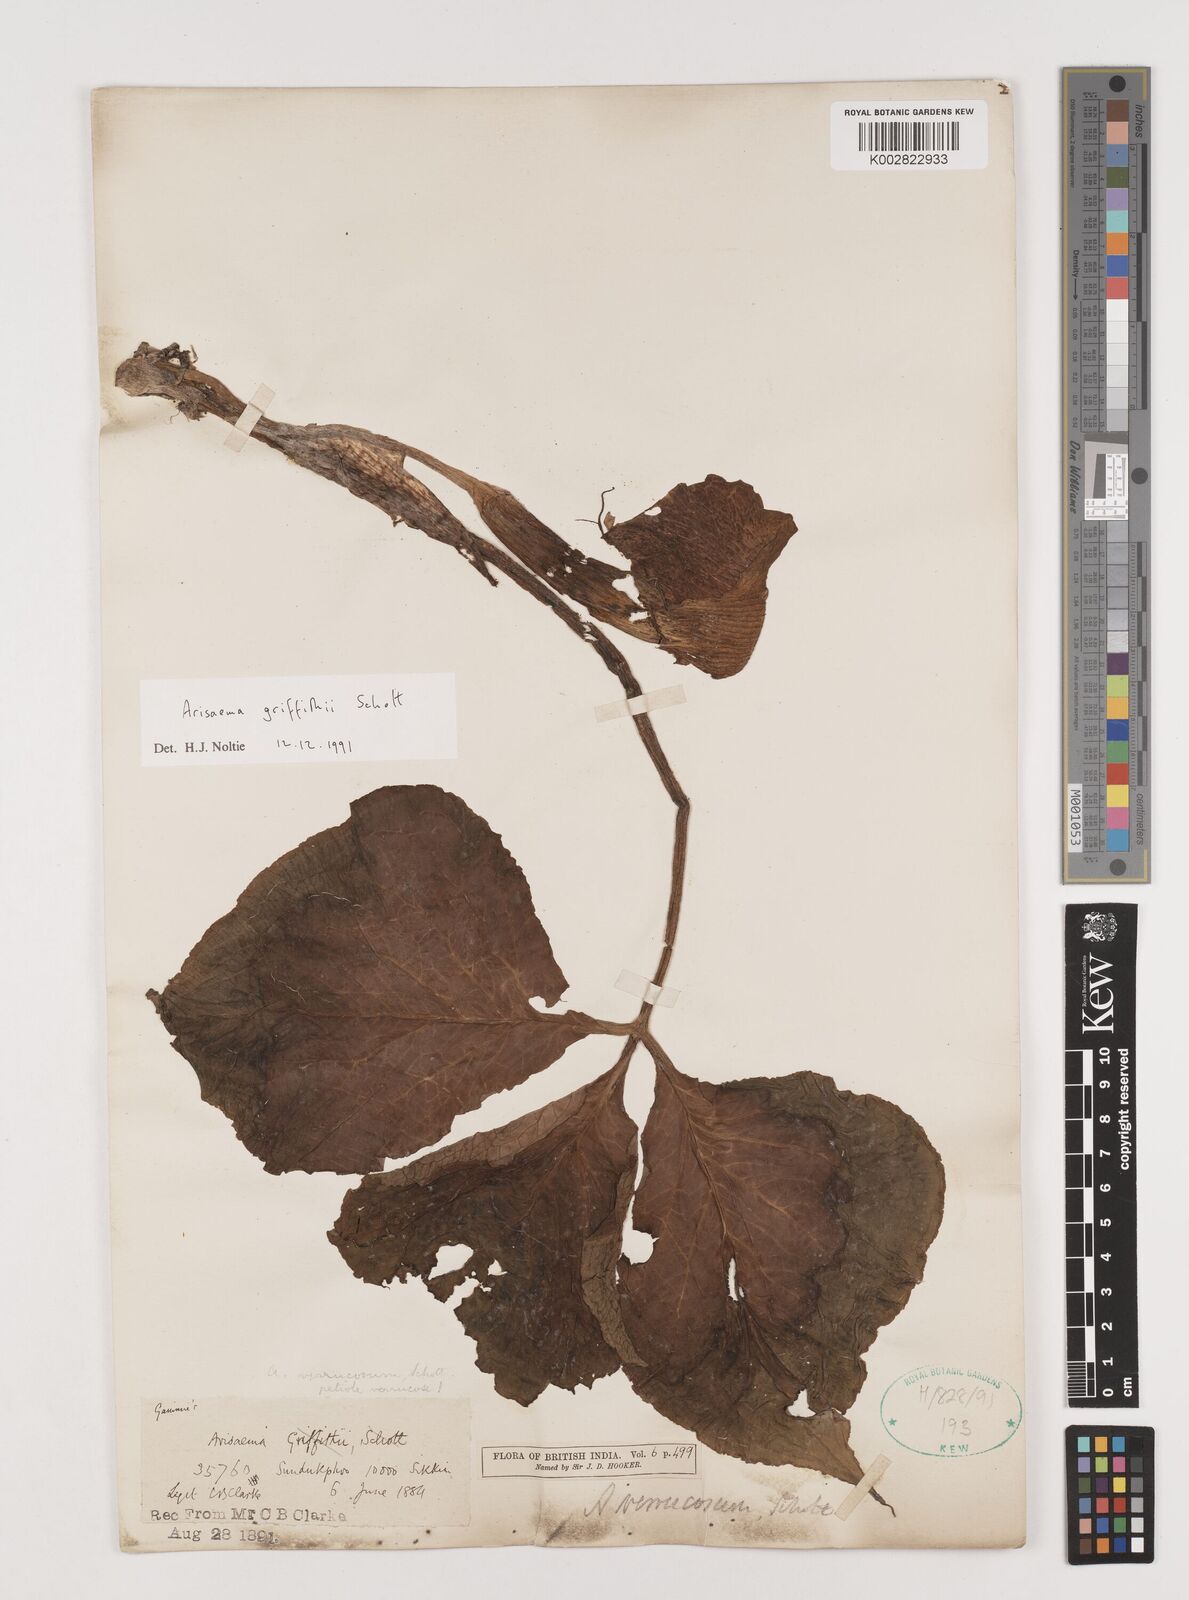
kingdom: Plantae
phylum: Tracheophyta
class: Liliopsida
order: Alismatales
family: Araceae
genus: Arisaema
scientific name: Arisaema griffithii
